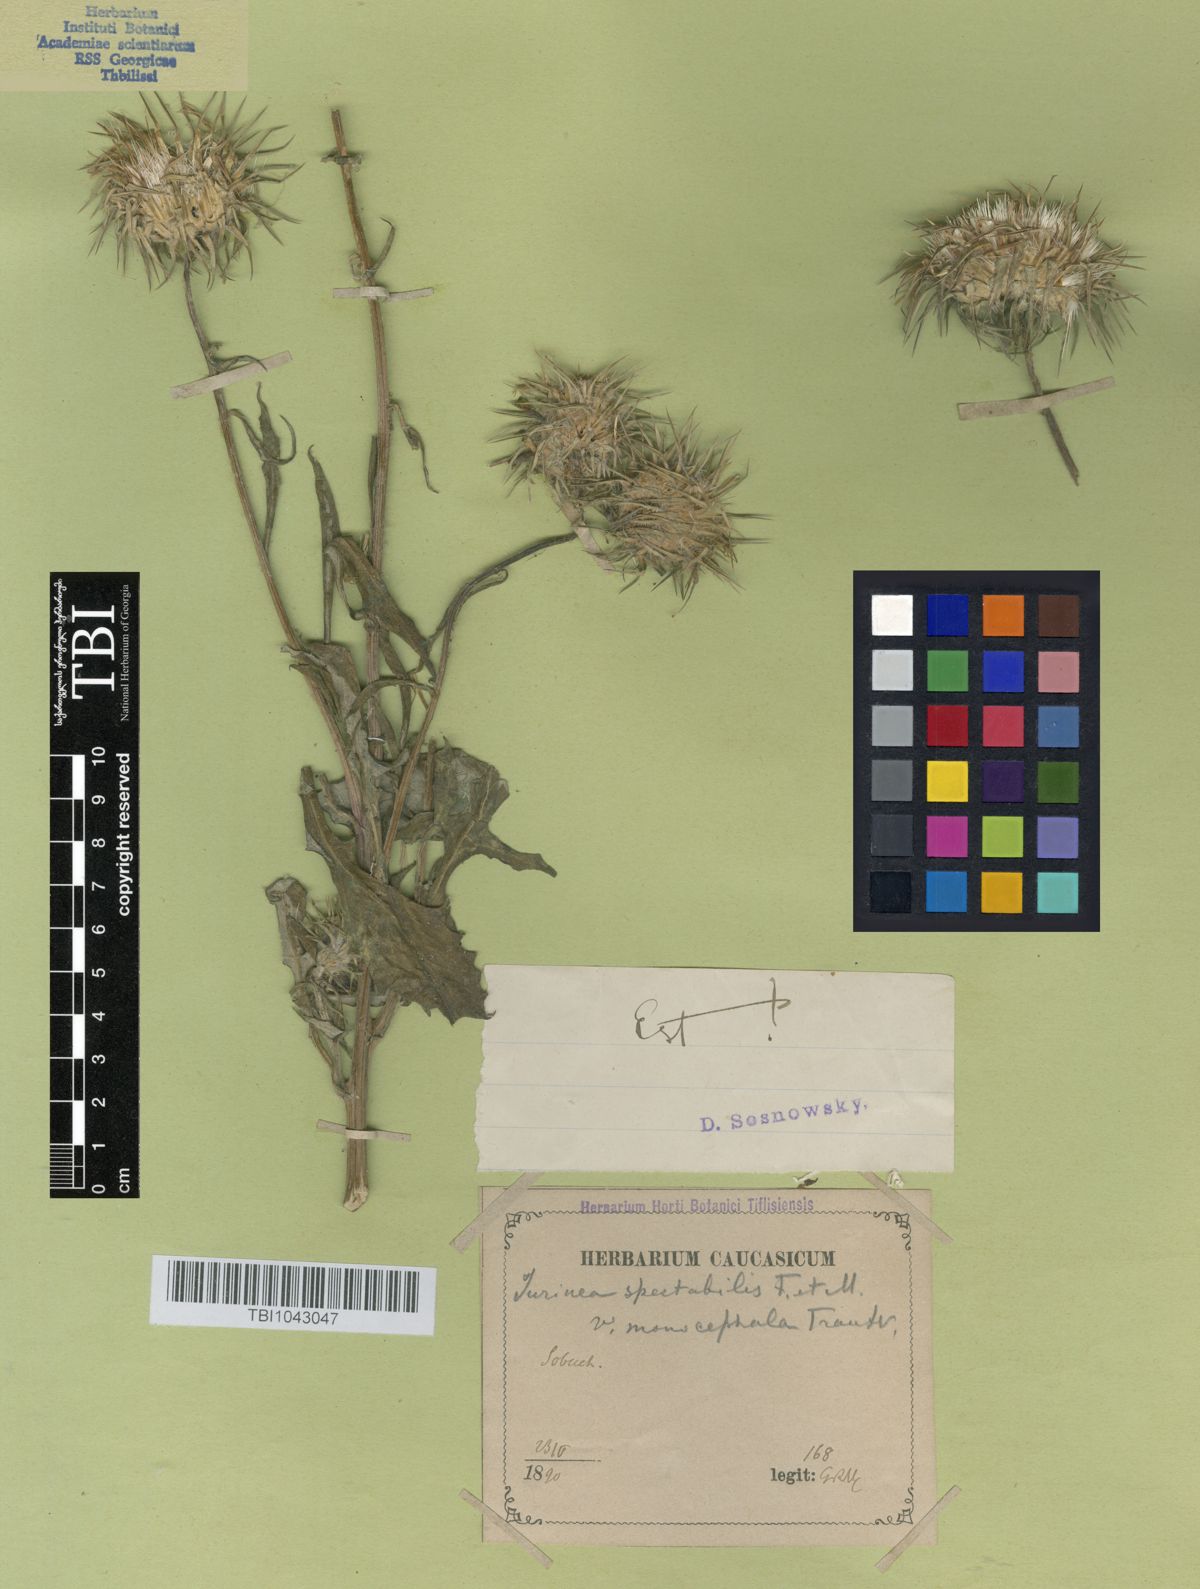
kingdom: Plantae
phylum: Tracheophyta
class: Magnoliopsida
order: Asterales
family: Asteraceae
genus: Jurinea
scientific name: Jurinea spectabilis
